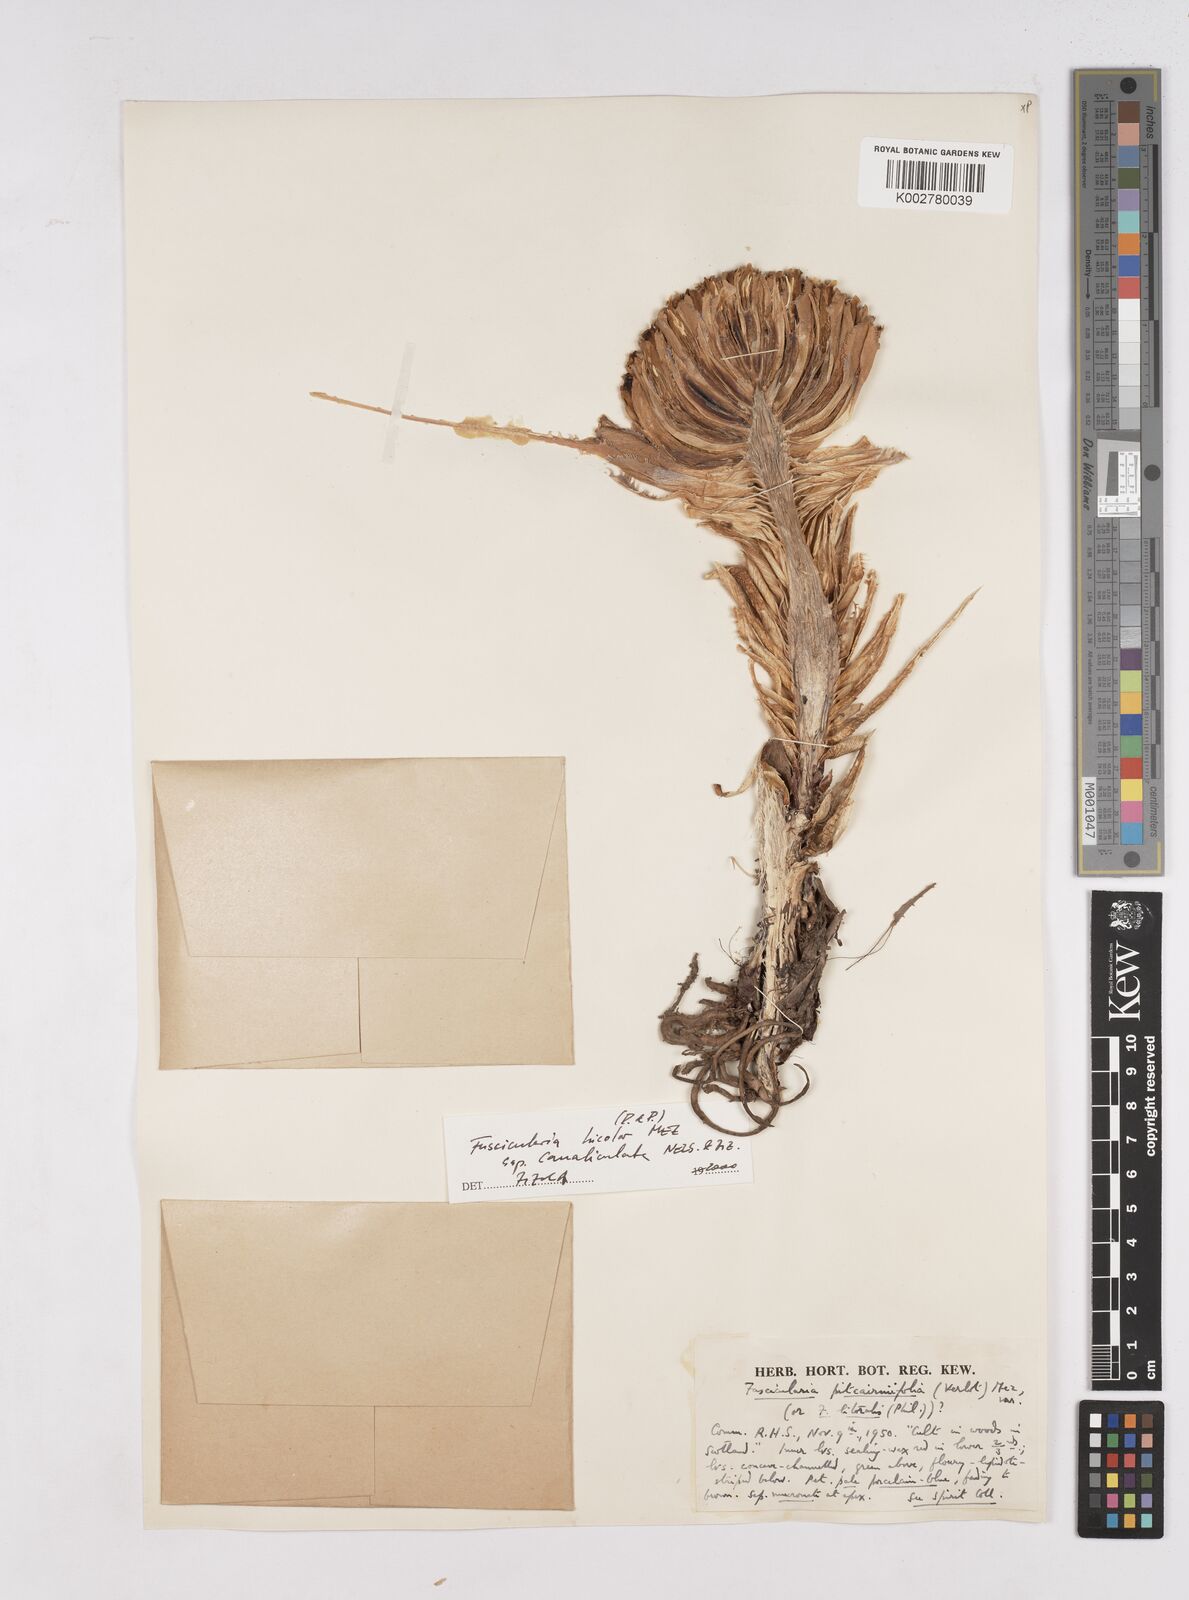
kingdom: Plantae
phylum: Tracheophyta
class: Liliopsida
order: Poales
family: Bromeliaceae
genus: Hechtia
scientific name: Hechtia pitcairniifolia
